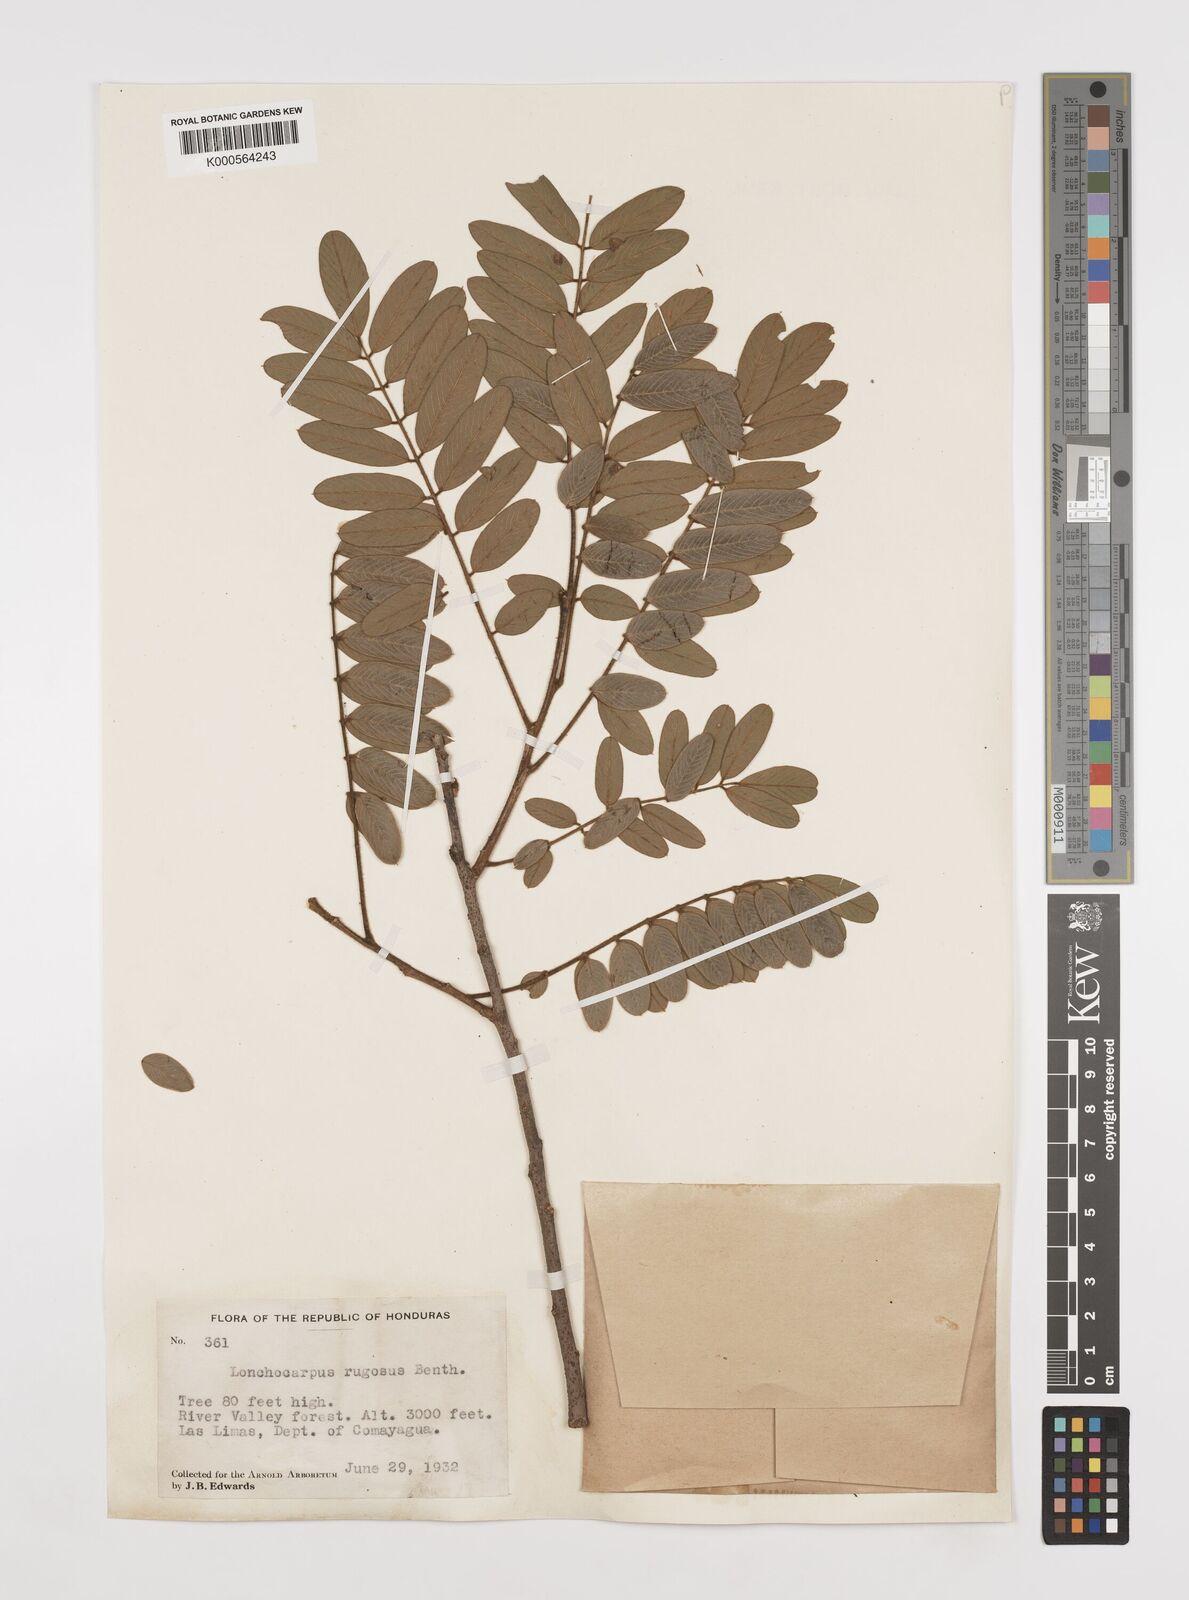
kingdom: Plantae
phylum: Tracheophyta
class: Magnoliopsida
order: Fabales
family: Fabaceae
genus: Lonchocarpus
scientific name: Lonchocarpus rugosus
